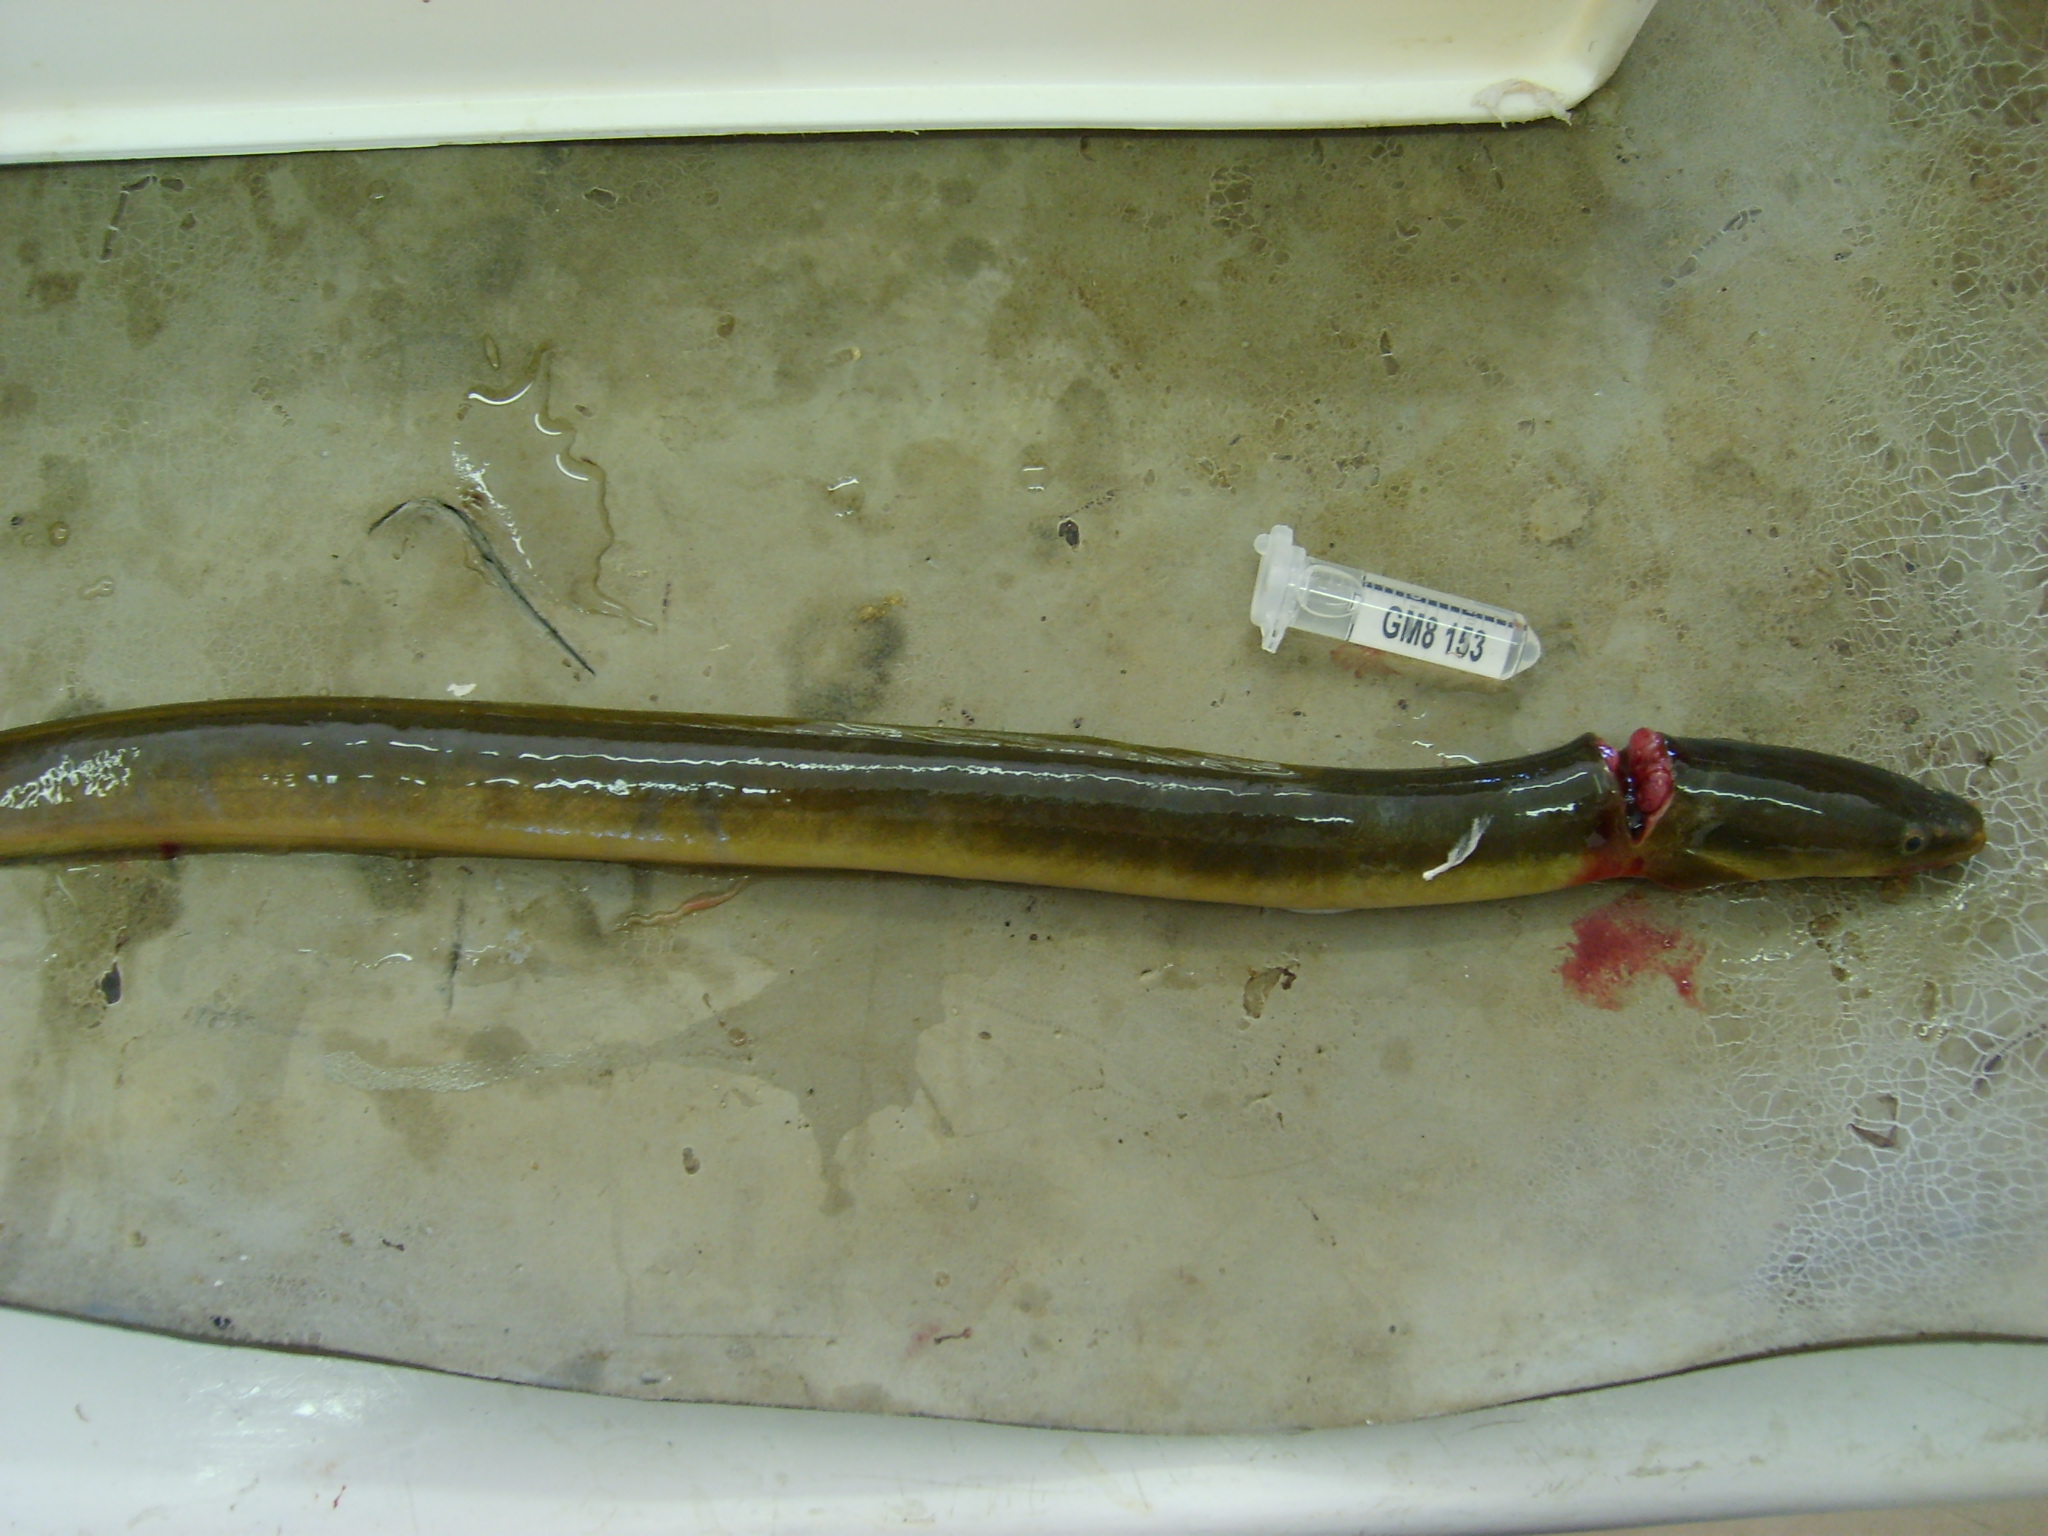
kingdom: Animalia
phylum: Chordata
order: Anguilliformes
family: Anguillidae
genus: Anguilla
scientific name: Anguilla mossambica
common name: African longfin eel
